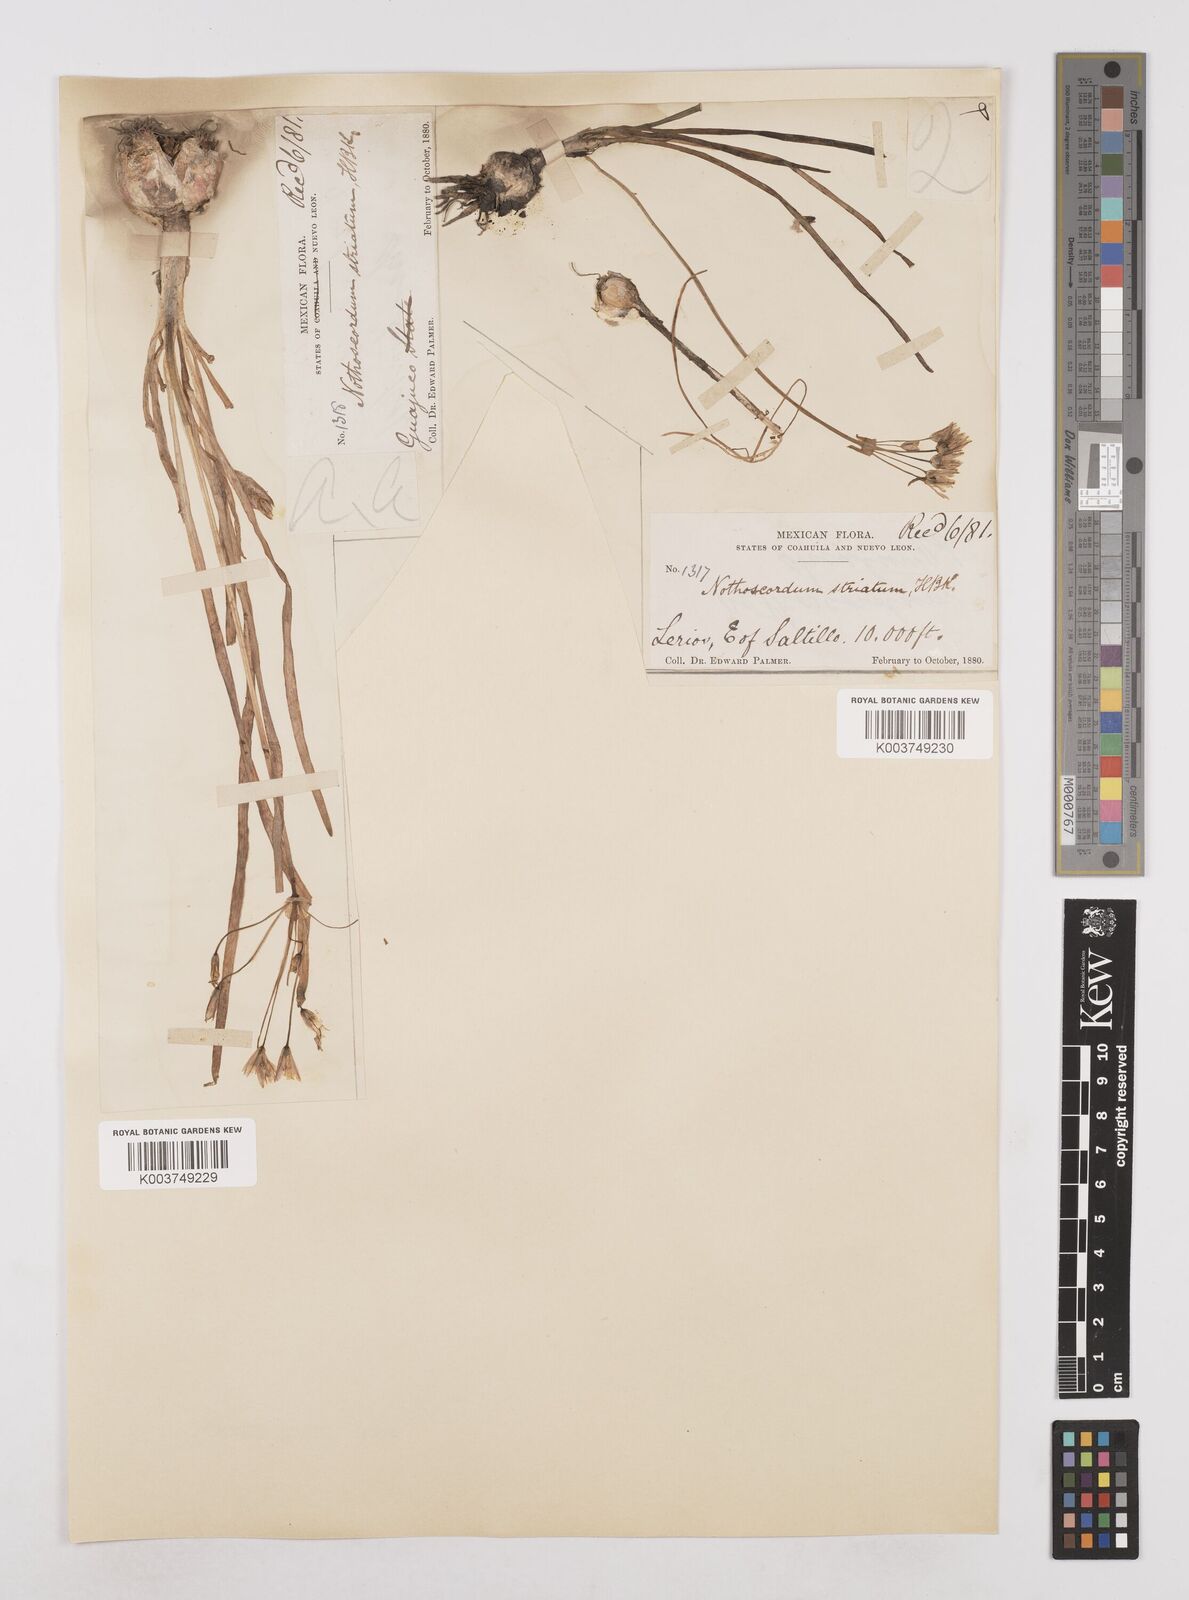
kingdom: Plantae
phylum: Tracheophyta
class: Liliopsida
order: Asparagales
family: Amaryllidaceae
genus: Nothoscordum
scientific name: Nothoscordum bivalve
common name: Crow-poison
